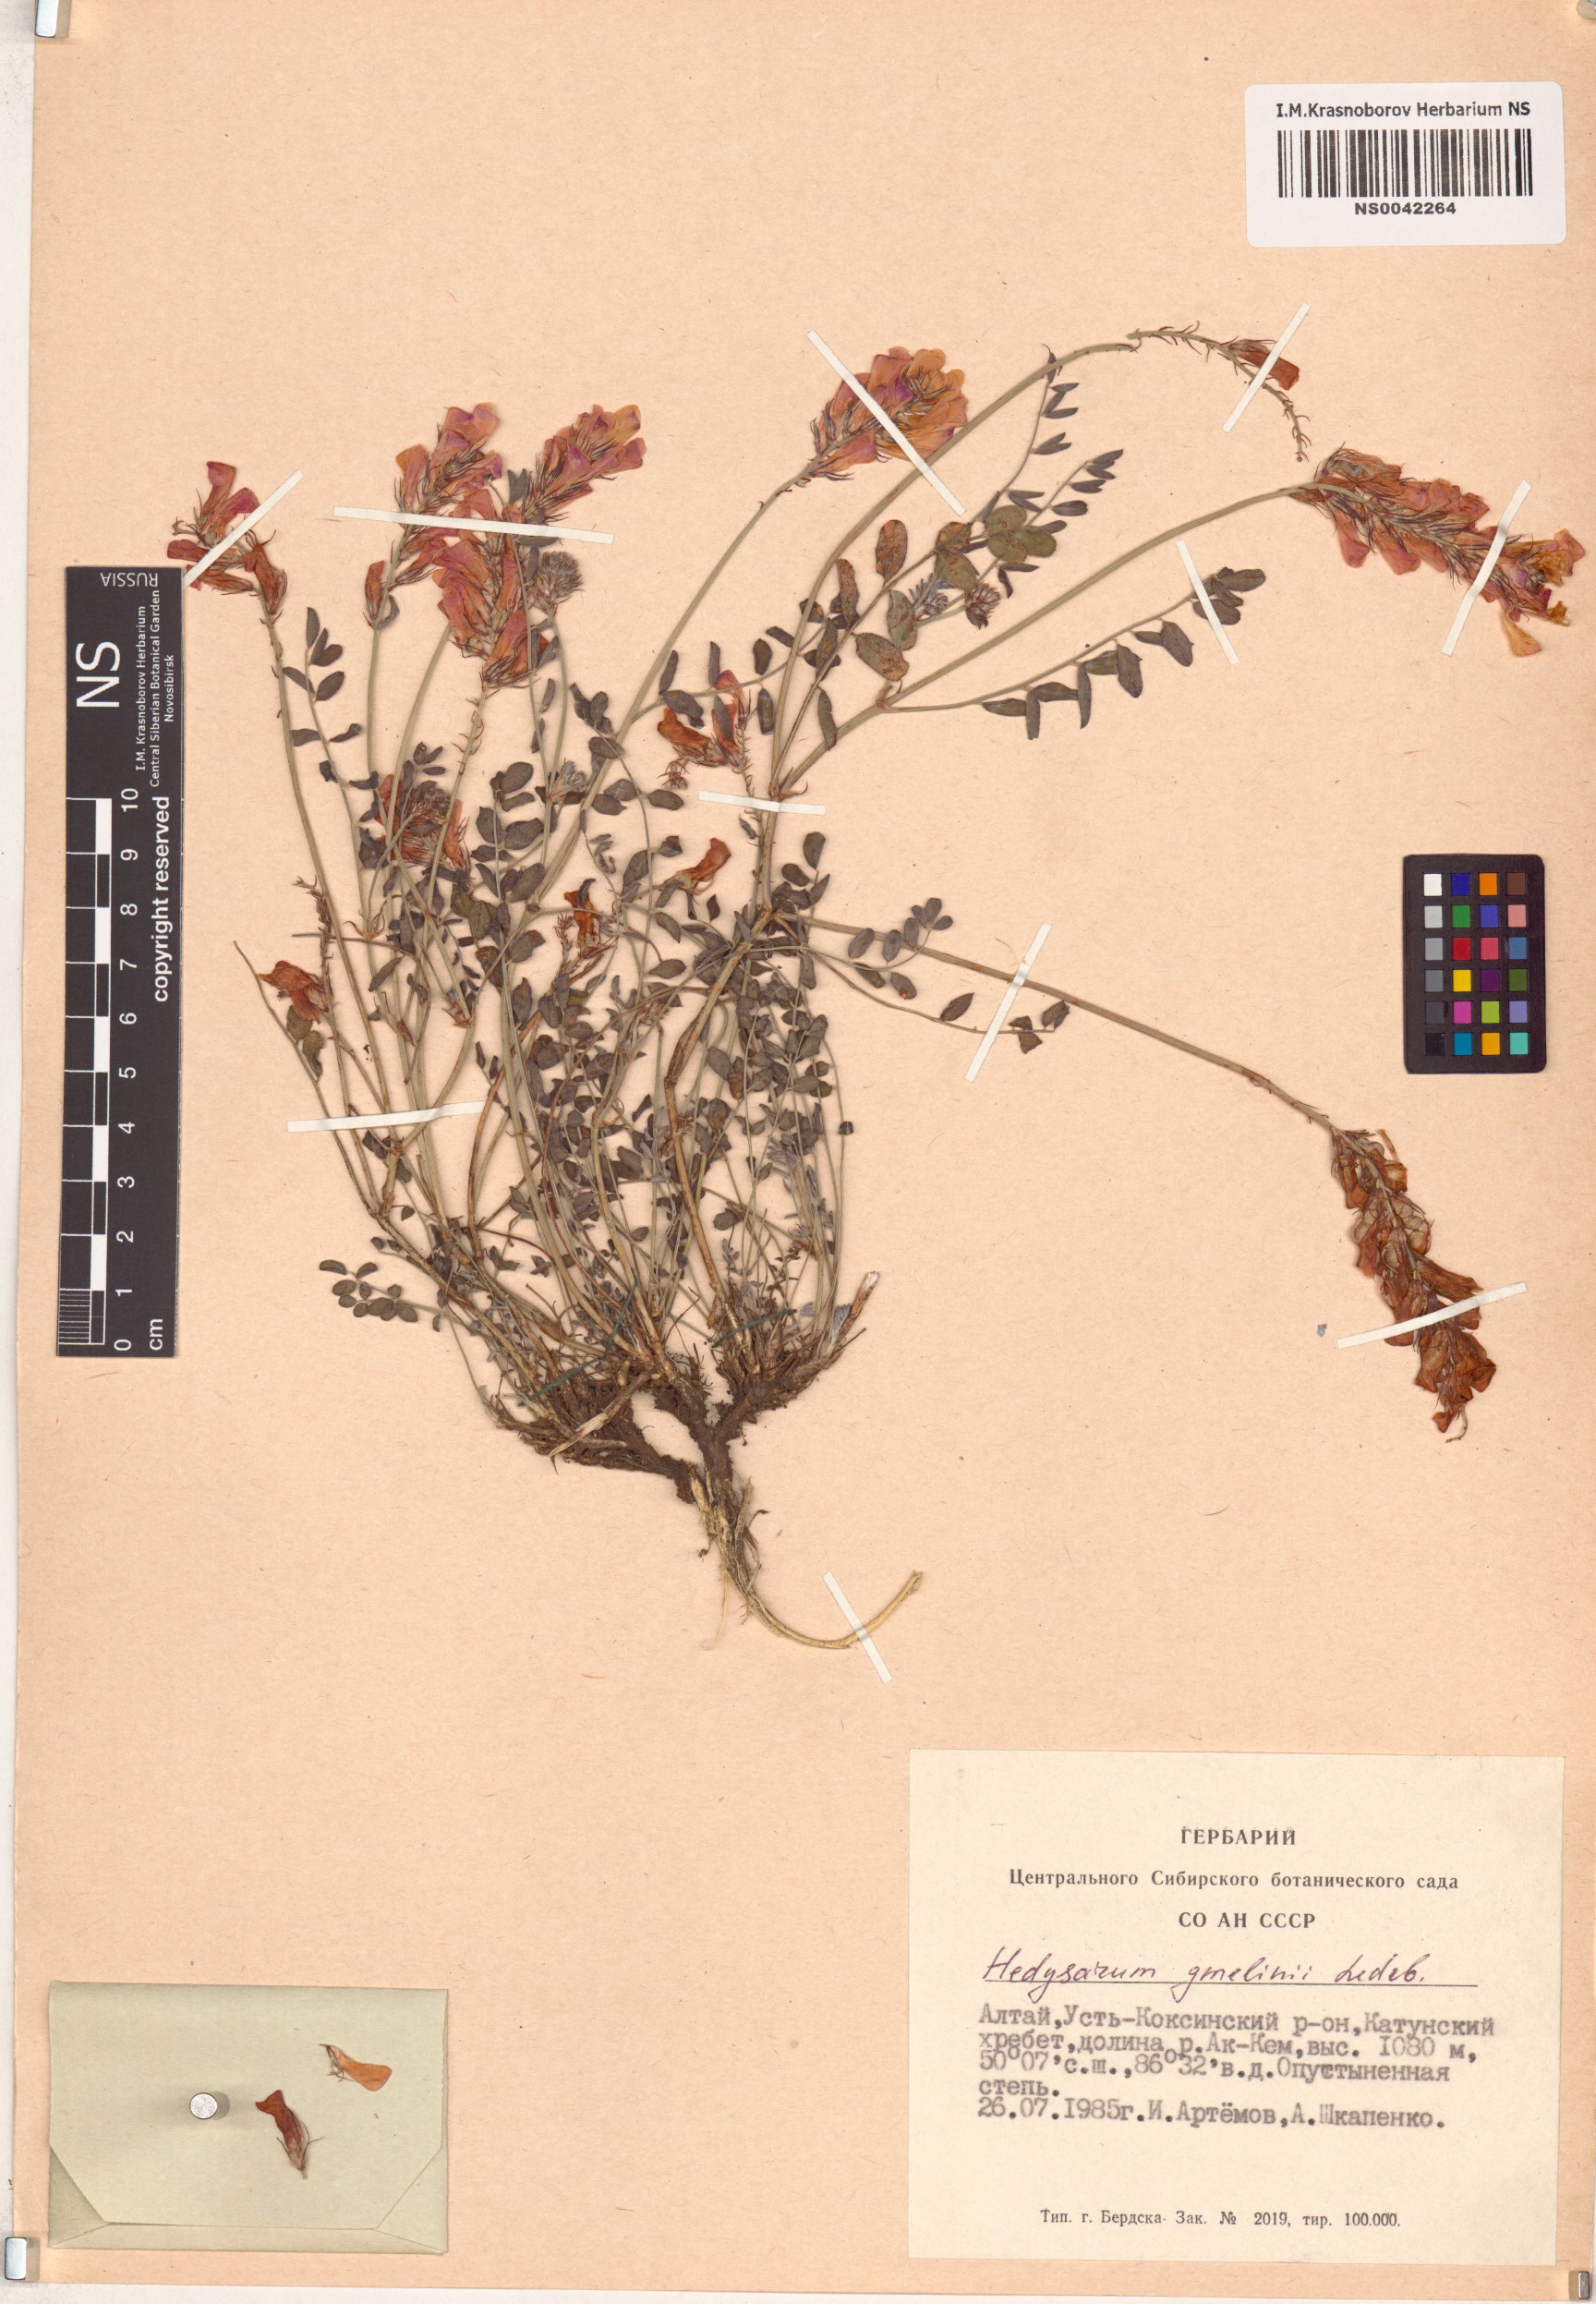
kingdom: Plantae
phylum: Tracheophyta
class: Magnoliopsida
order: Fabales
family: Fabaceae
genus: Hedysarum
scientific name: Hedysarum gmelinii
